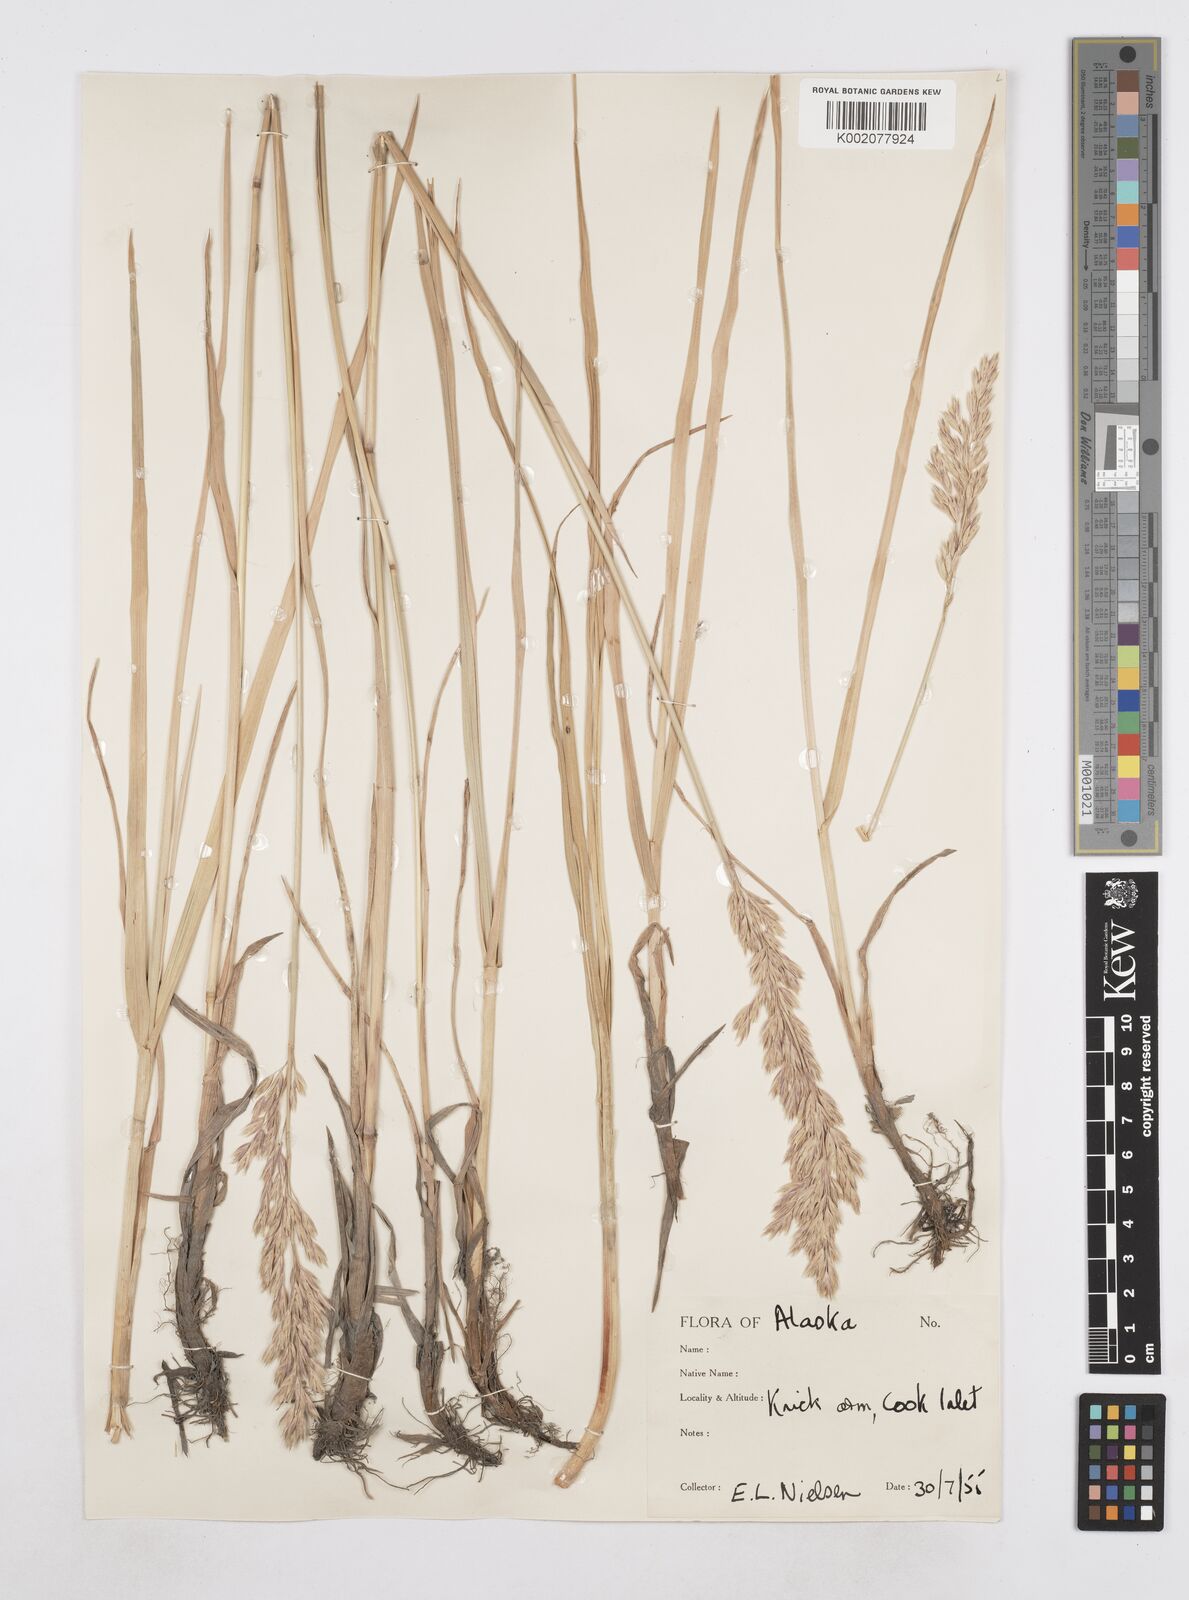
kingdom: Plantae
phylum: Tracheophyta
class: Liliopsida
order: Poales
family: Poaceae
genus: Arctopoa
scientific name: Arctopoa eminens
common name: Eminent bluegrass
